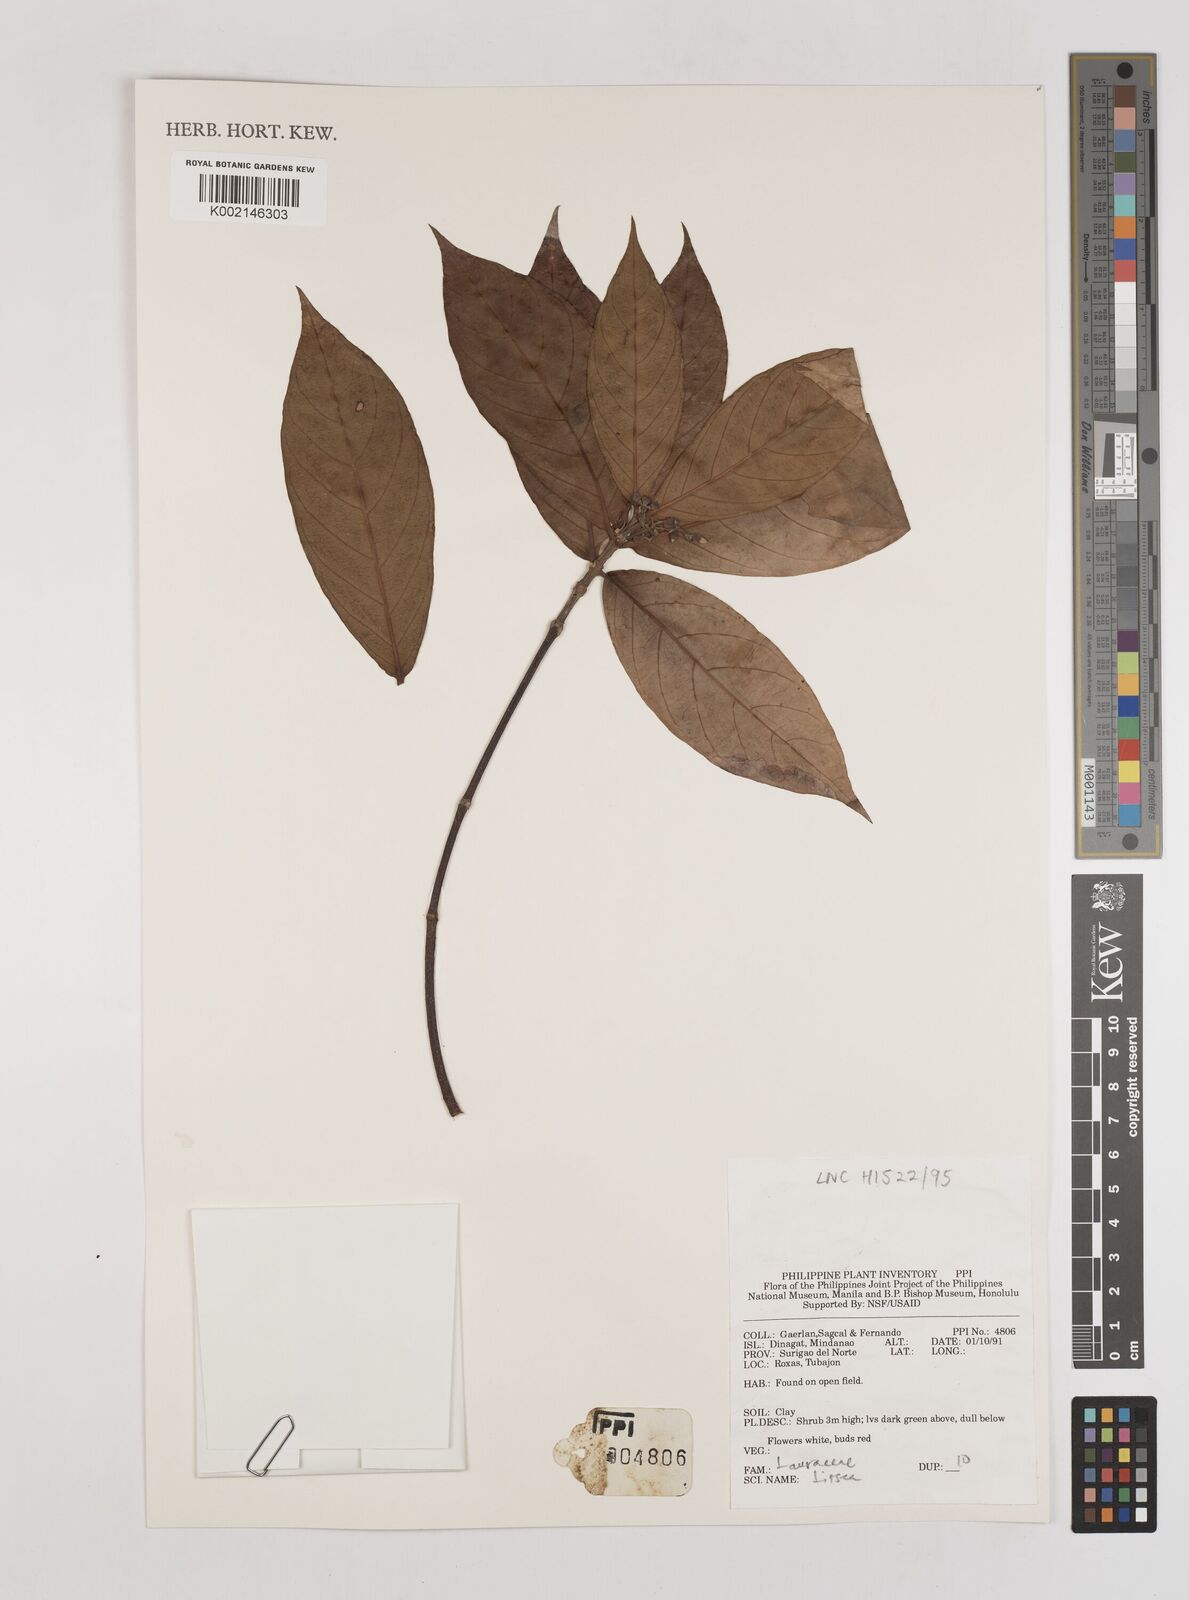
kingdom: Plantae
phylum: Tracheophyta
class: Magnoliopsida
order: Laurales
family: Lauraceae
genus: Litsea
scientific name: Litsea
